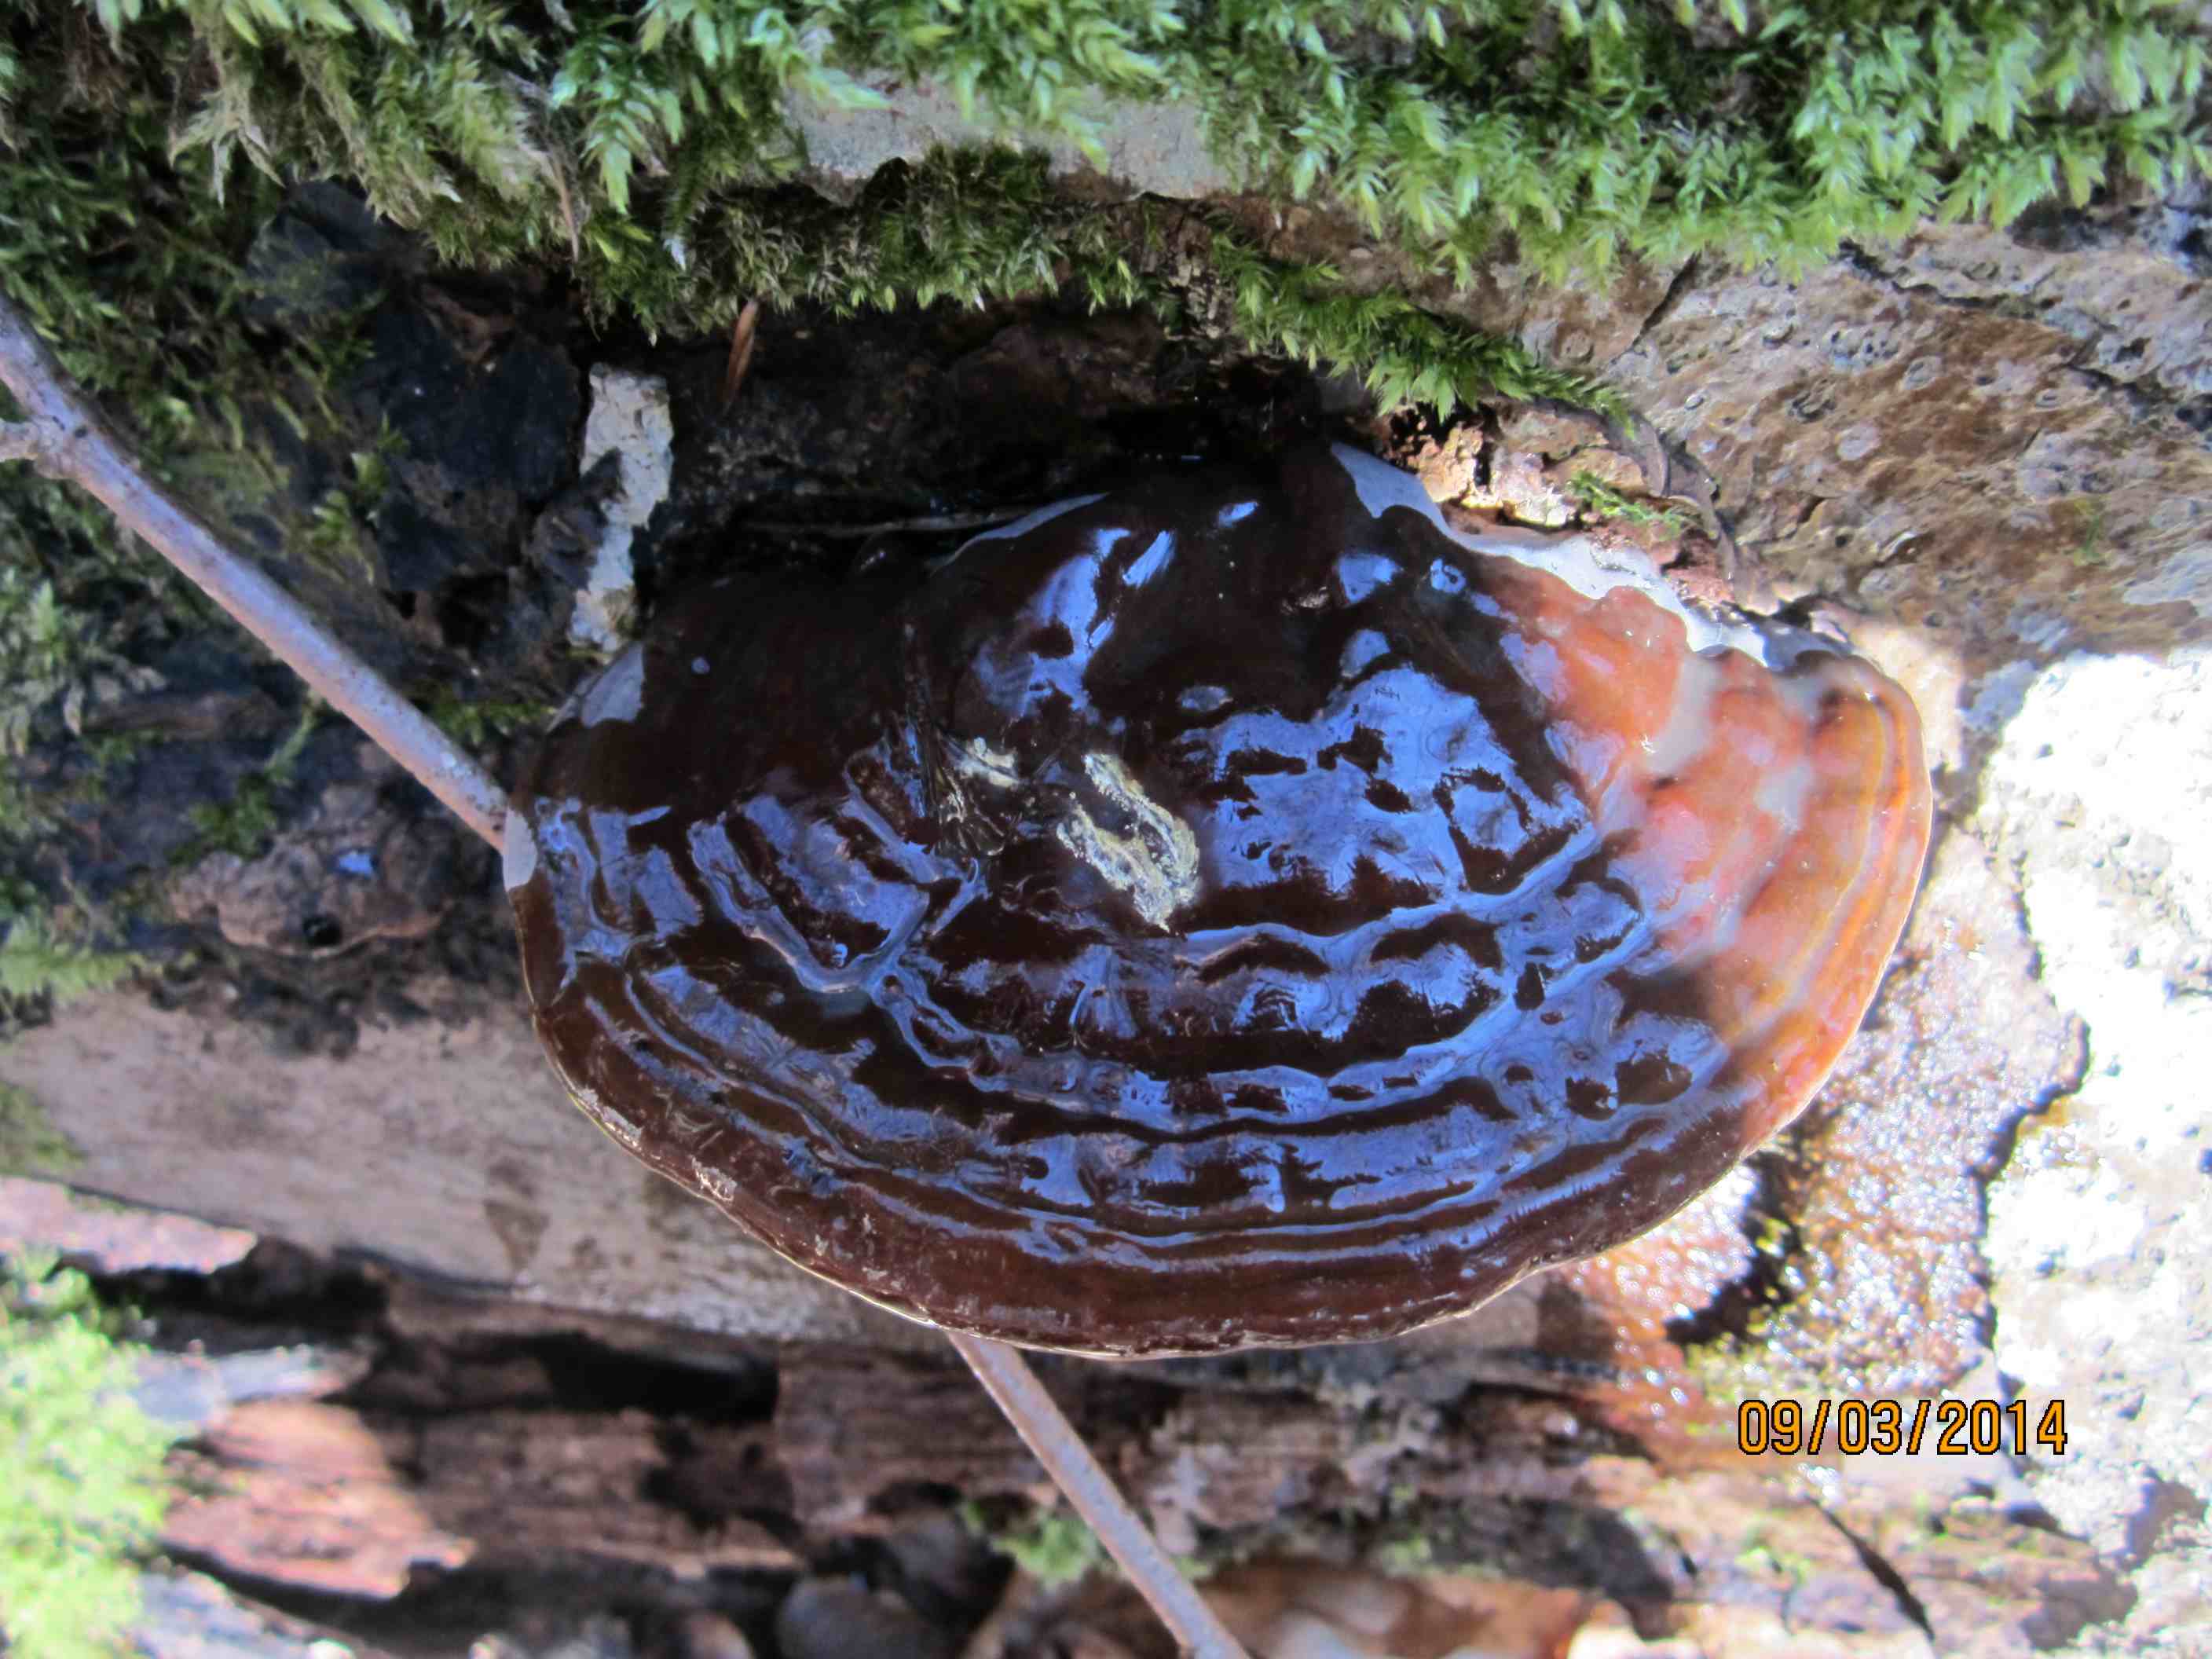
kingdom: Fungi
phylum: Basidiomycota
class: Agaricomycetes
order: Polyporales
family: Polyporaceae
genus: Ganoderma
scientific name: Ganoderma pfeifferi
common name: kobberrød lakporesvamp
